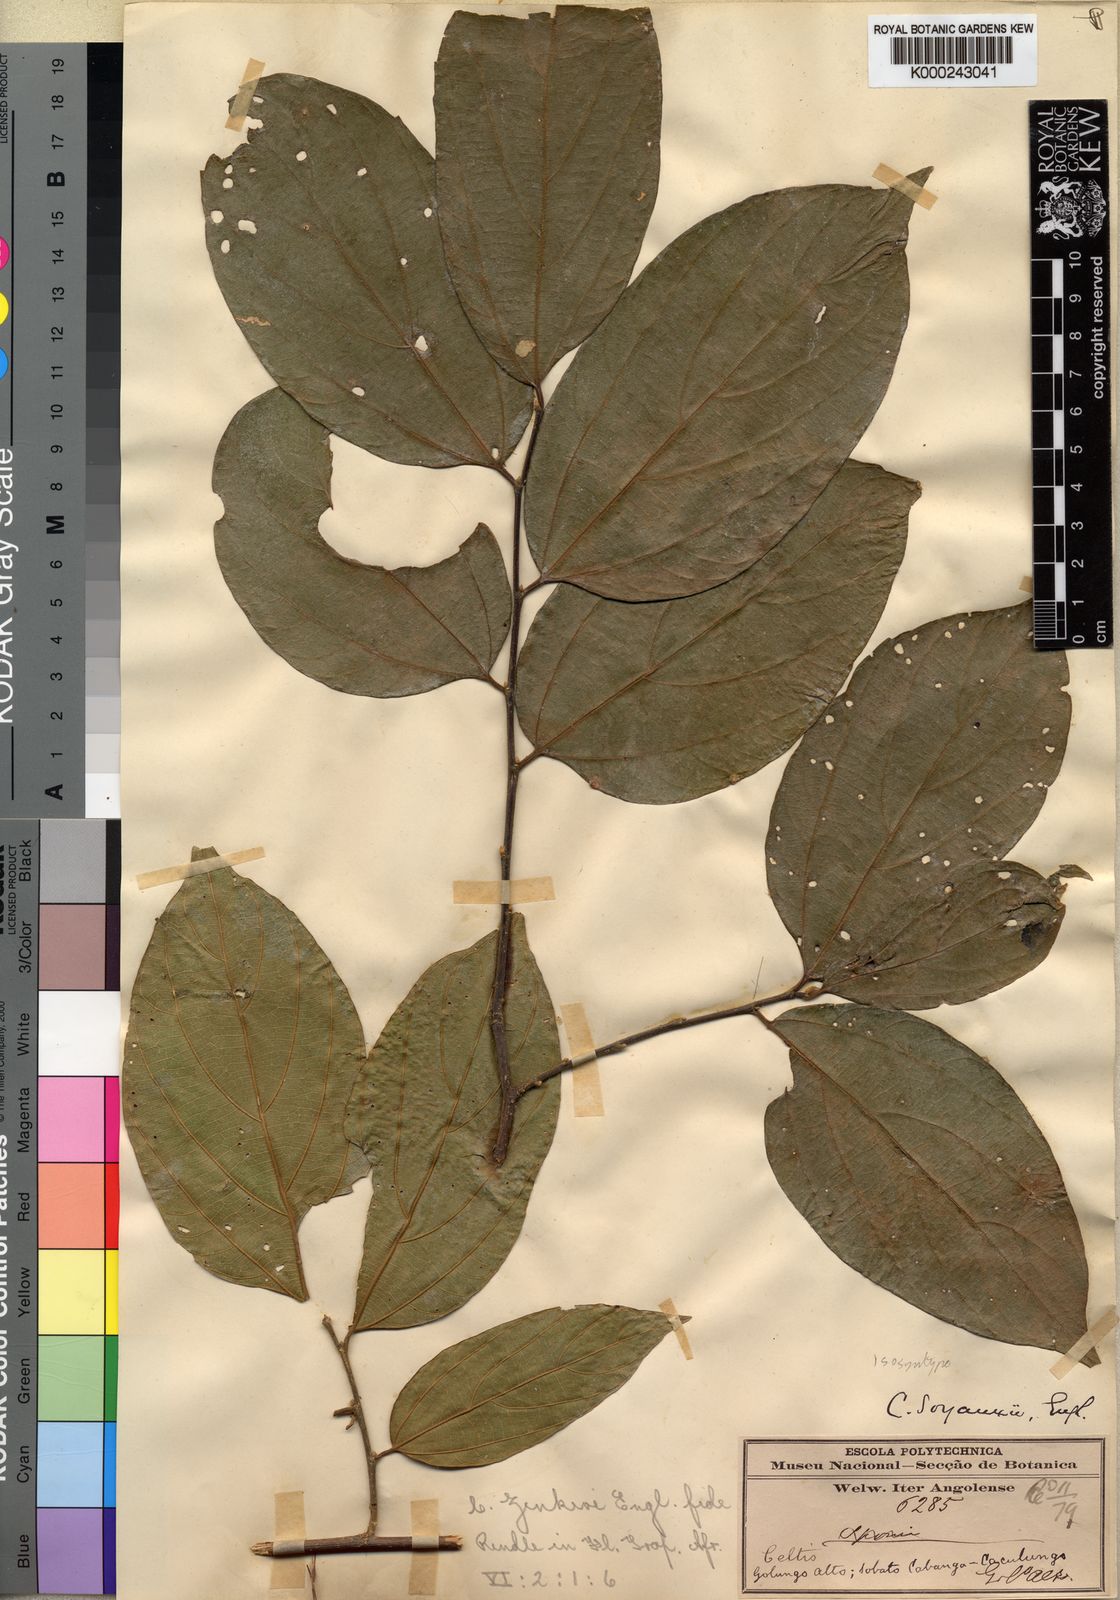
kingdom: Plantae
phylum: Tracheophyta
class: Magnoliopsida
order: Rosales
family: Cannabaceae
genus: Celtis
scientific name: Celtis zenkeri
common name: African celtis
